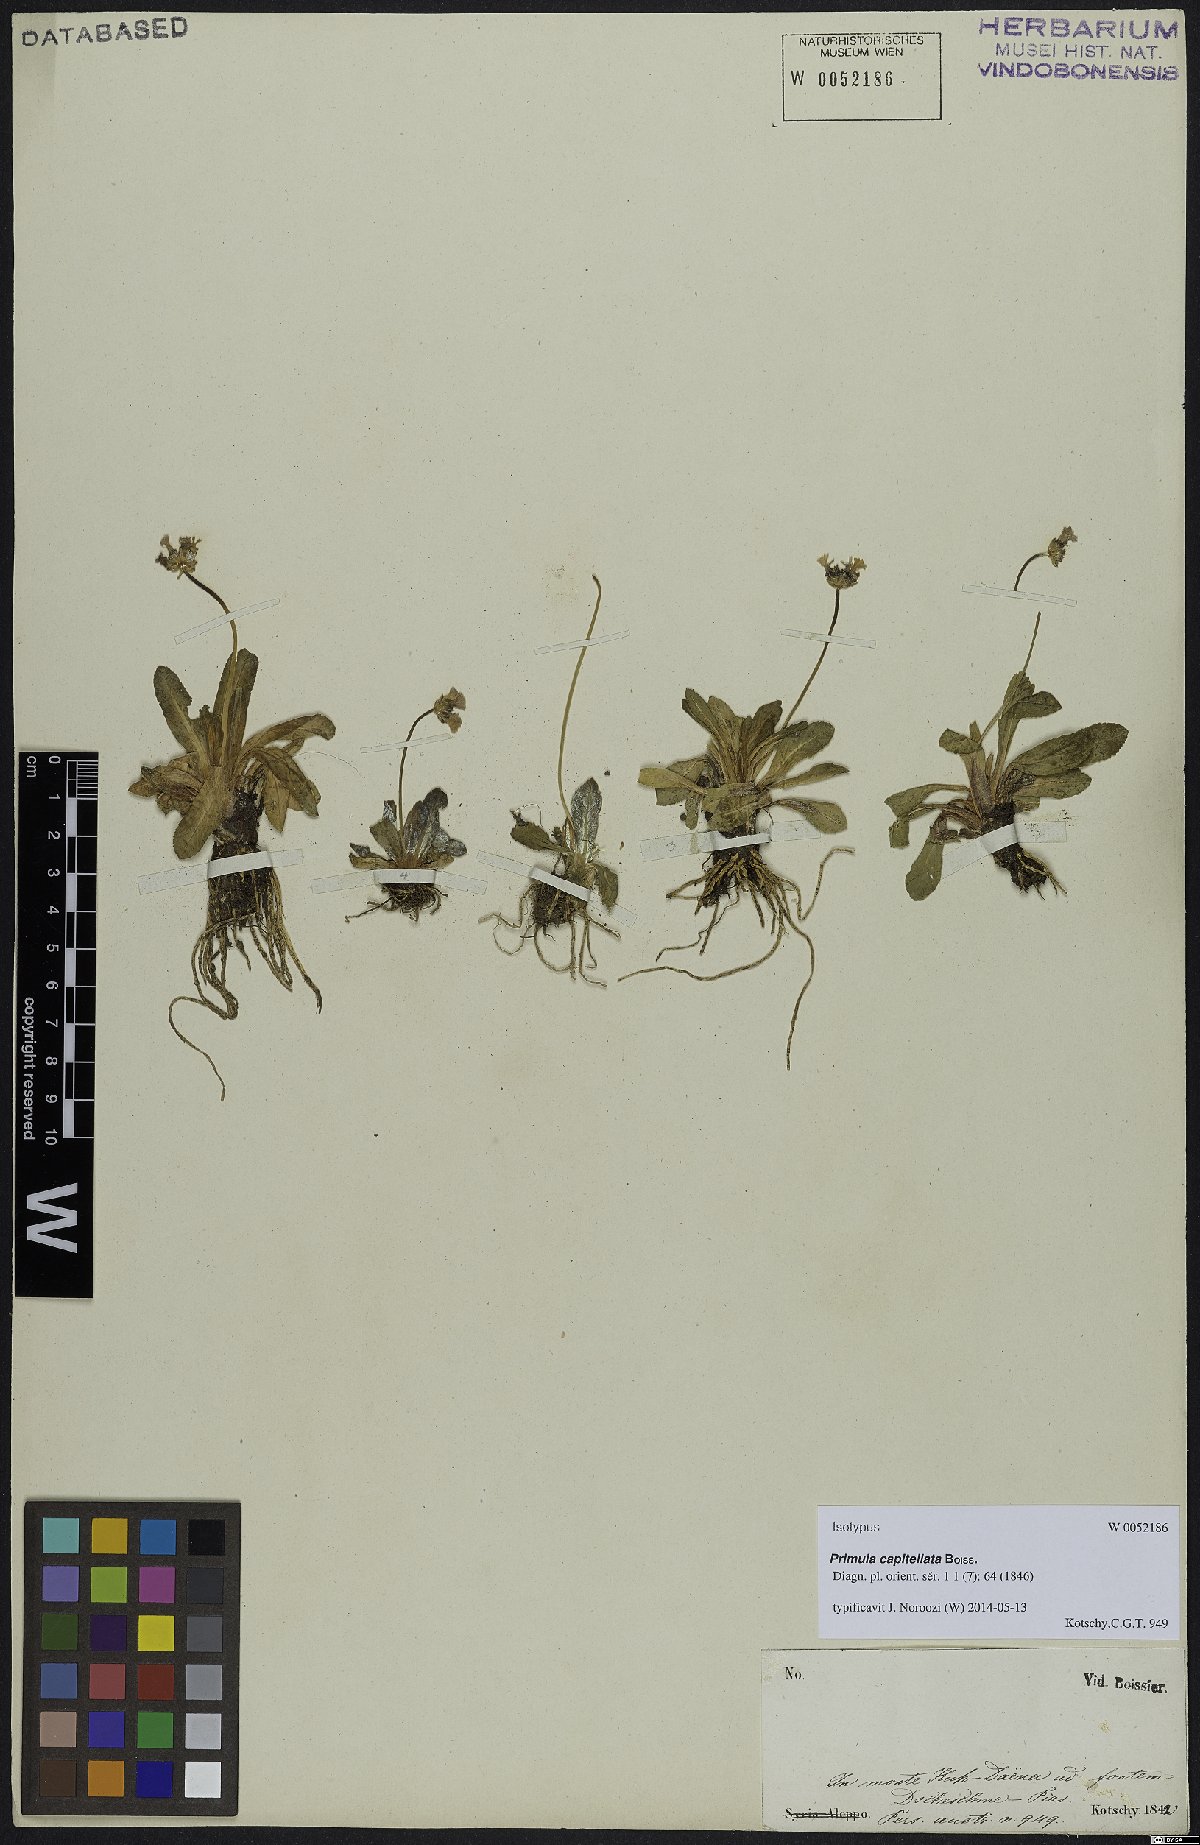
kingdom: Plantae
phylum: Tracheophyta
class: Magnoliopsida
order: Ericales
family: Primulaceae
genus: Primula
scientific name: Primula capitellata
